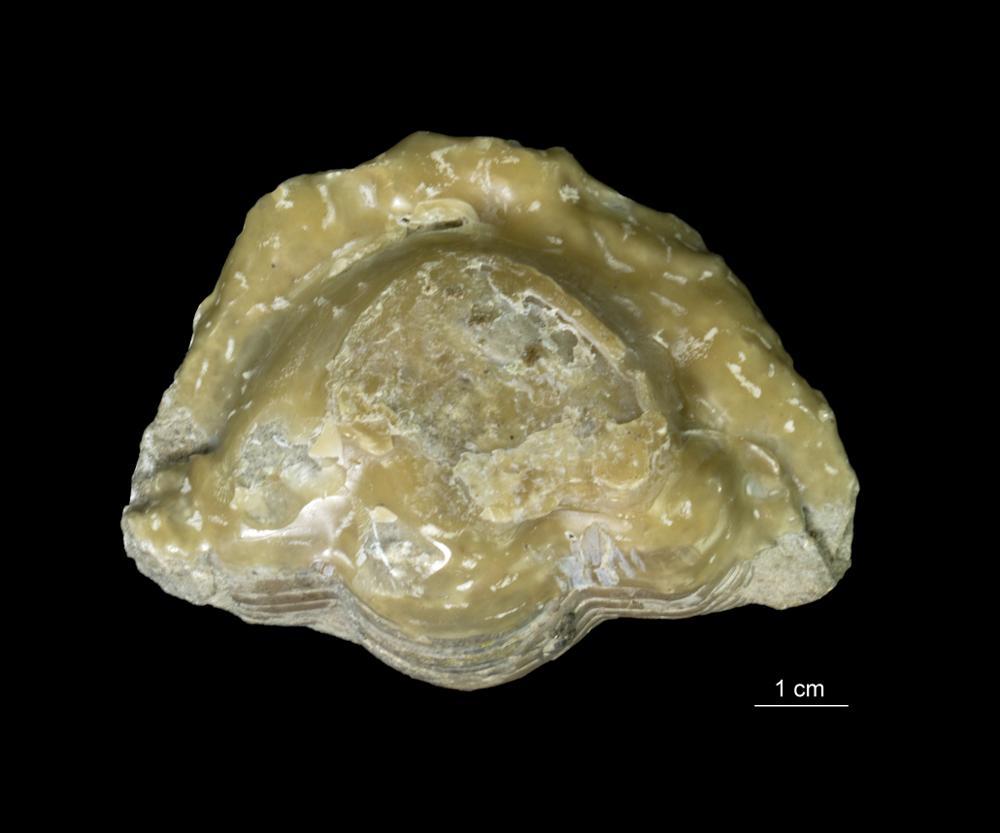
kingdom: Animalia
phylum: Arthropoda
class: Trilobita
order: Asaphida
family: Asaphidae
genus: Asaphus
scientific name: Asaphus expansus
